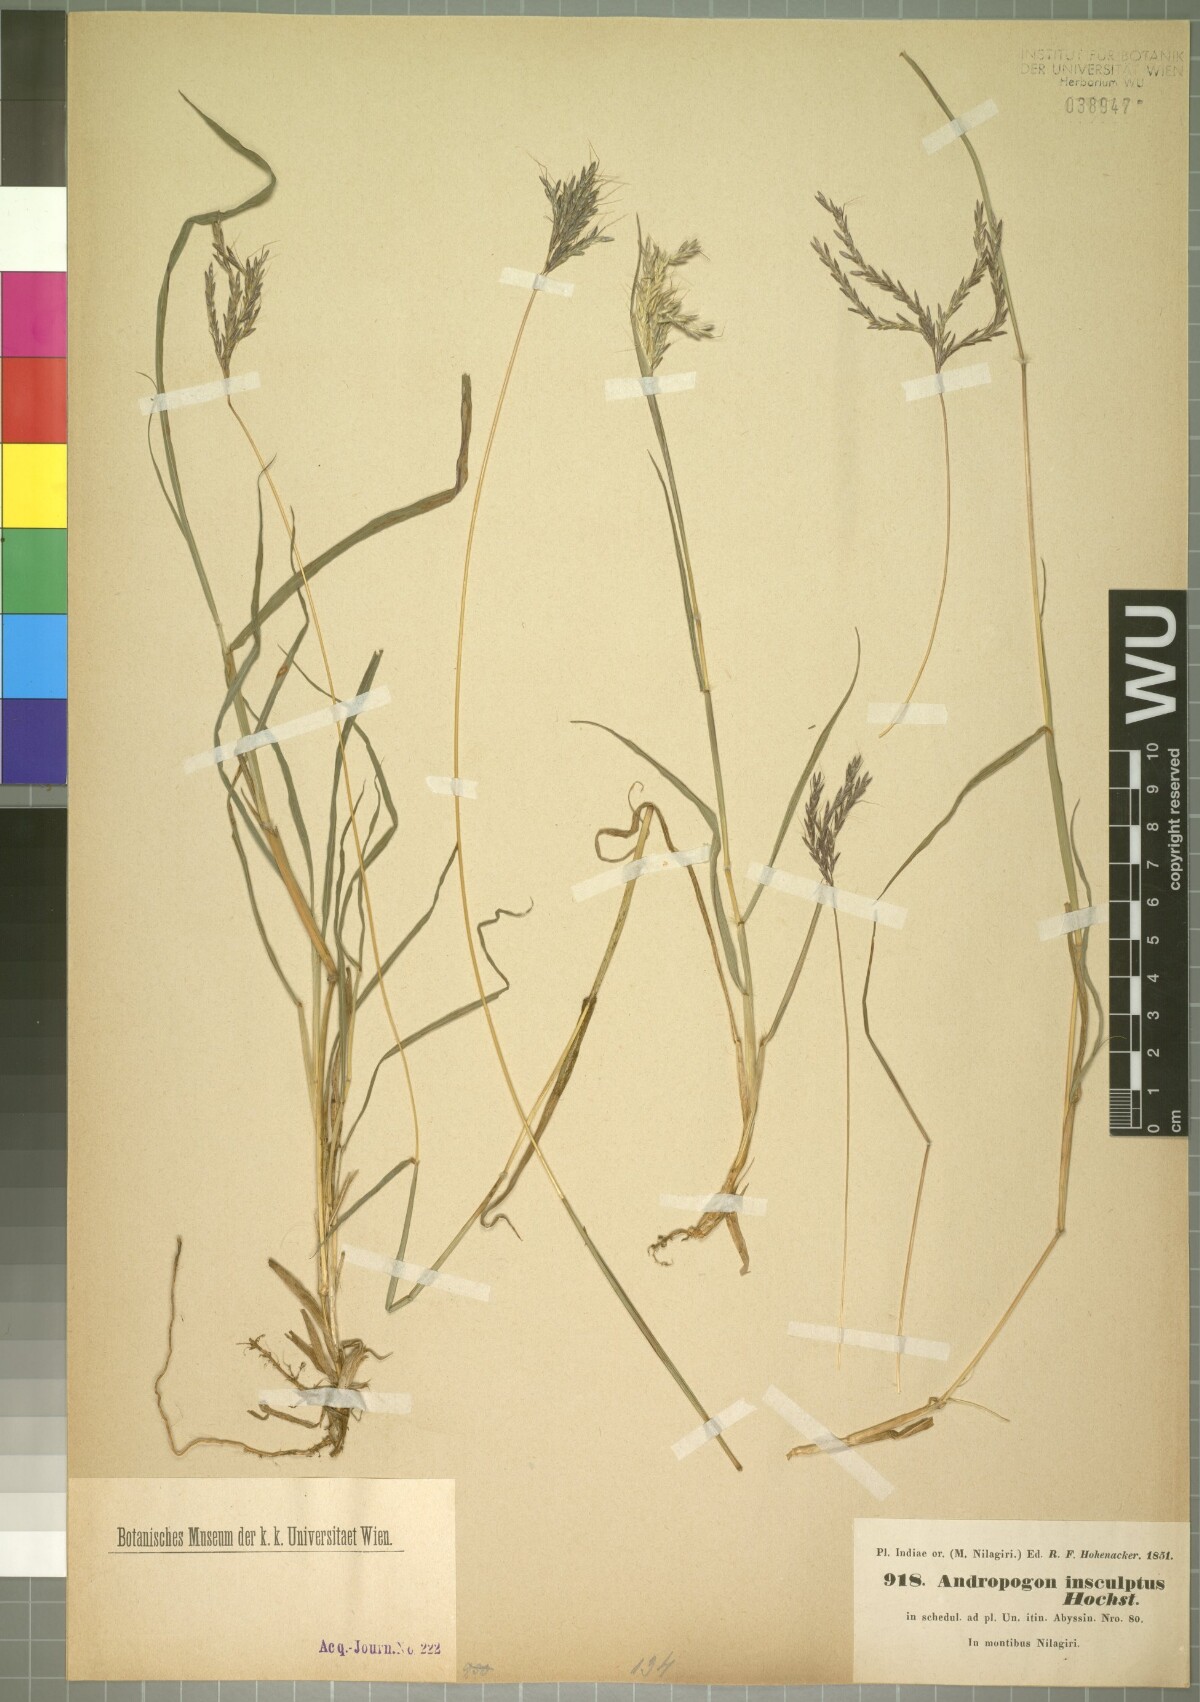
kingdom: Plantae
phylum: Tracheophyta
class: Liliopsida
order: Poales
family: Poaceae
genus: Bothriochloa
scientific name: Bothriochloa insculpta
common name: Creeping-bluegrass
